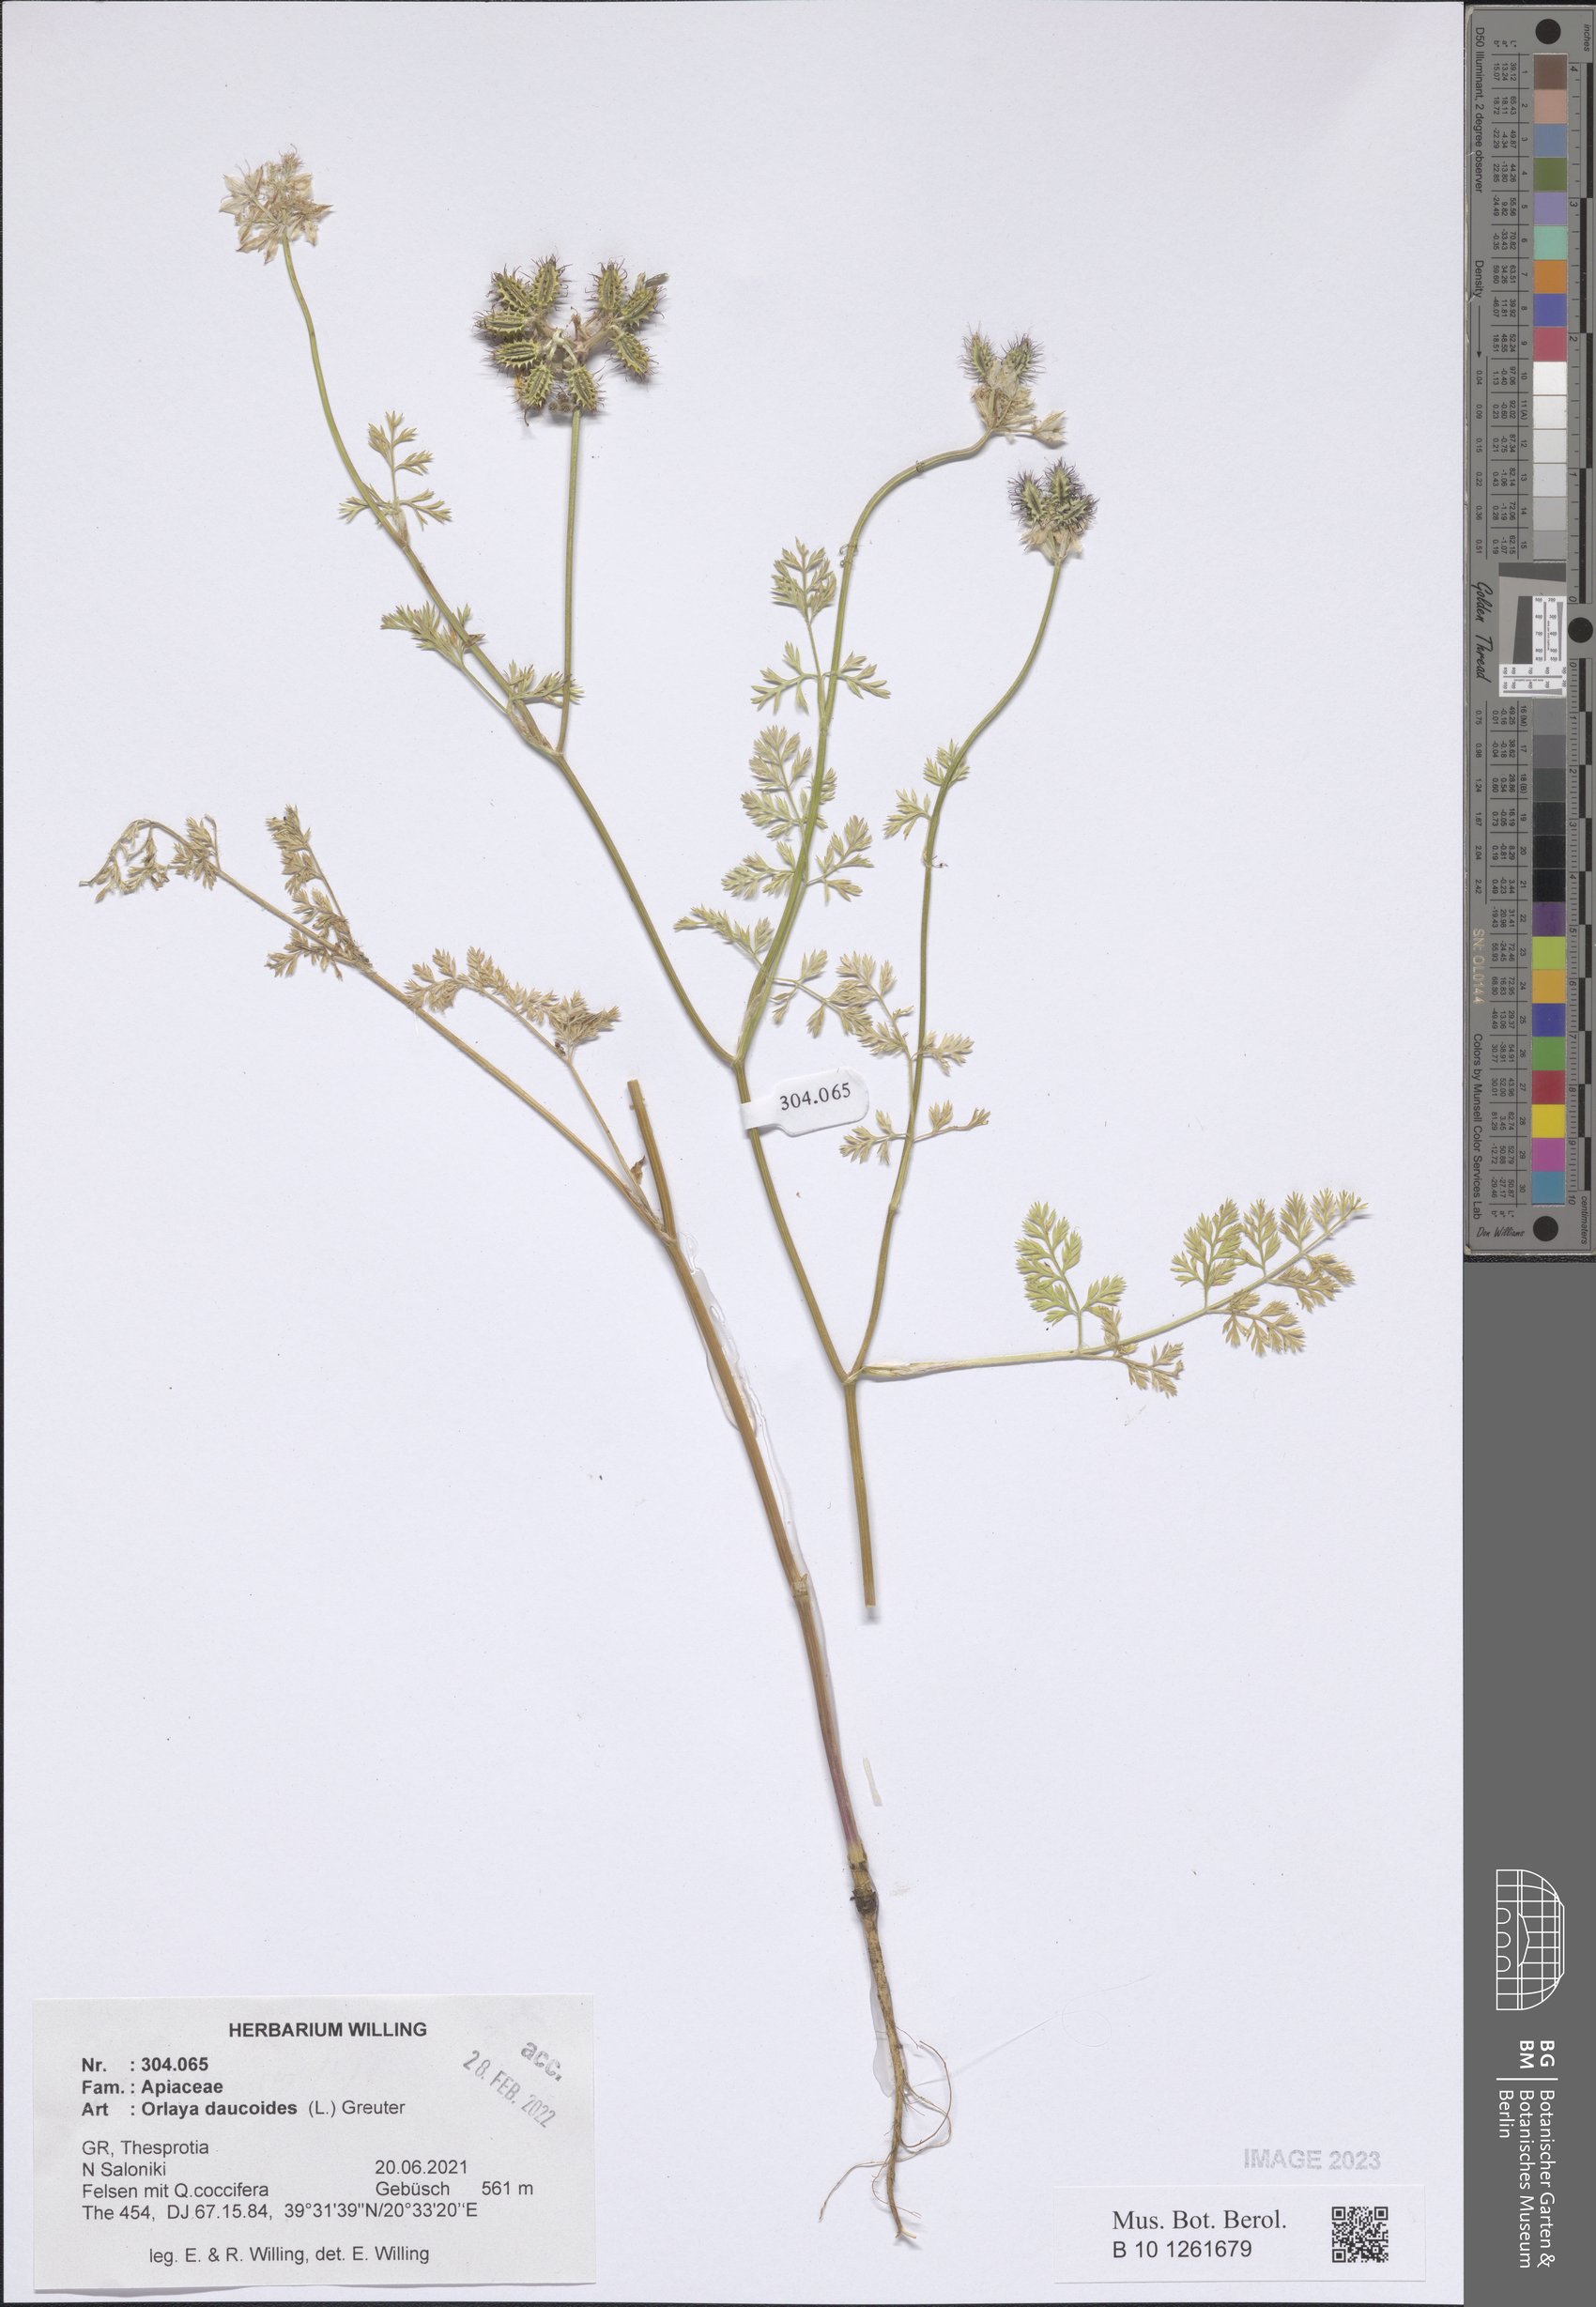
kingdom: Plantae
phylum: Tracheophyta
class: Magnoliopsida
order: Apiales
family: Apiaceae
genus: Orlaya
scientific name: Orlaya daucoides
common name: Flat-fruit orlaya
